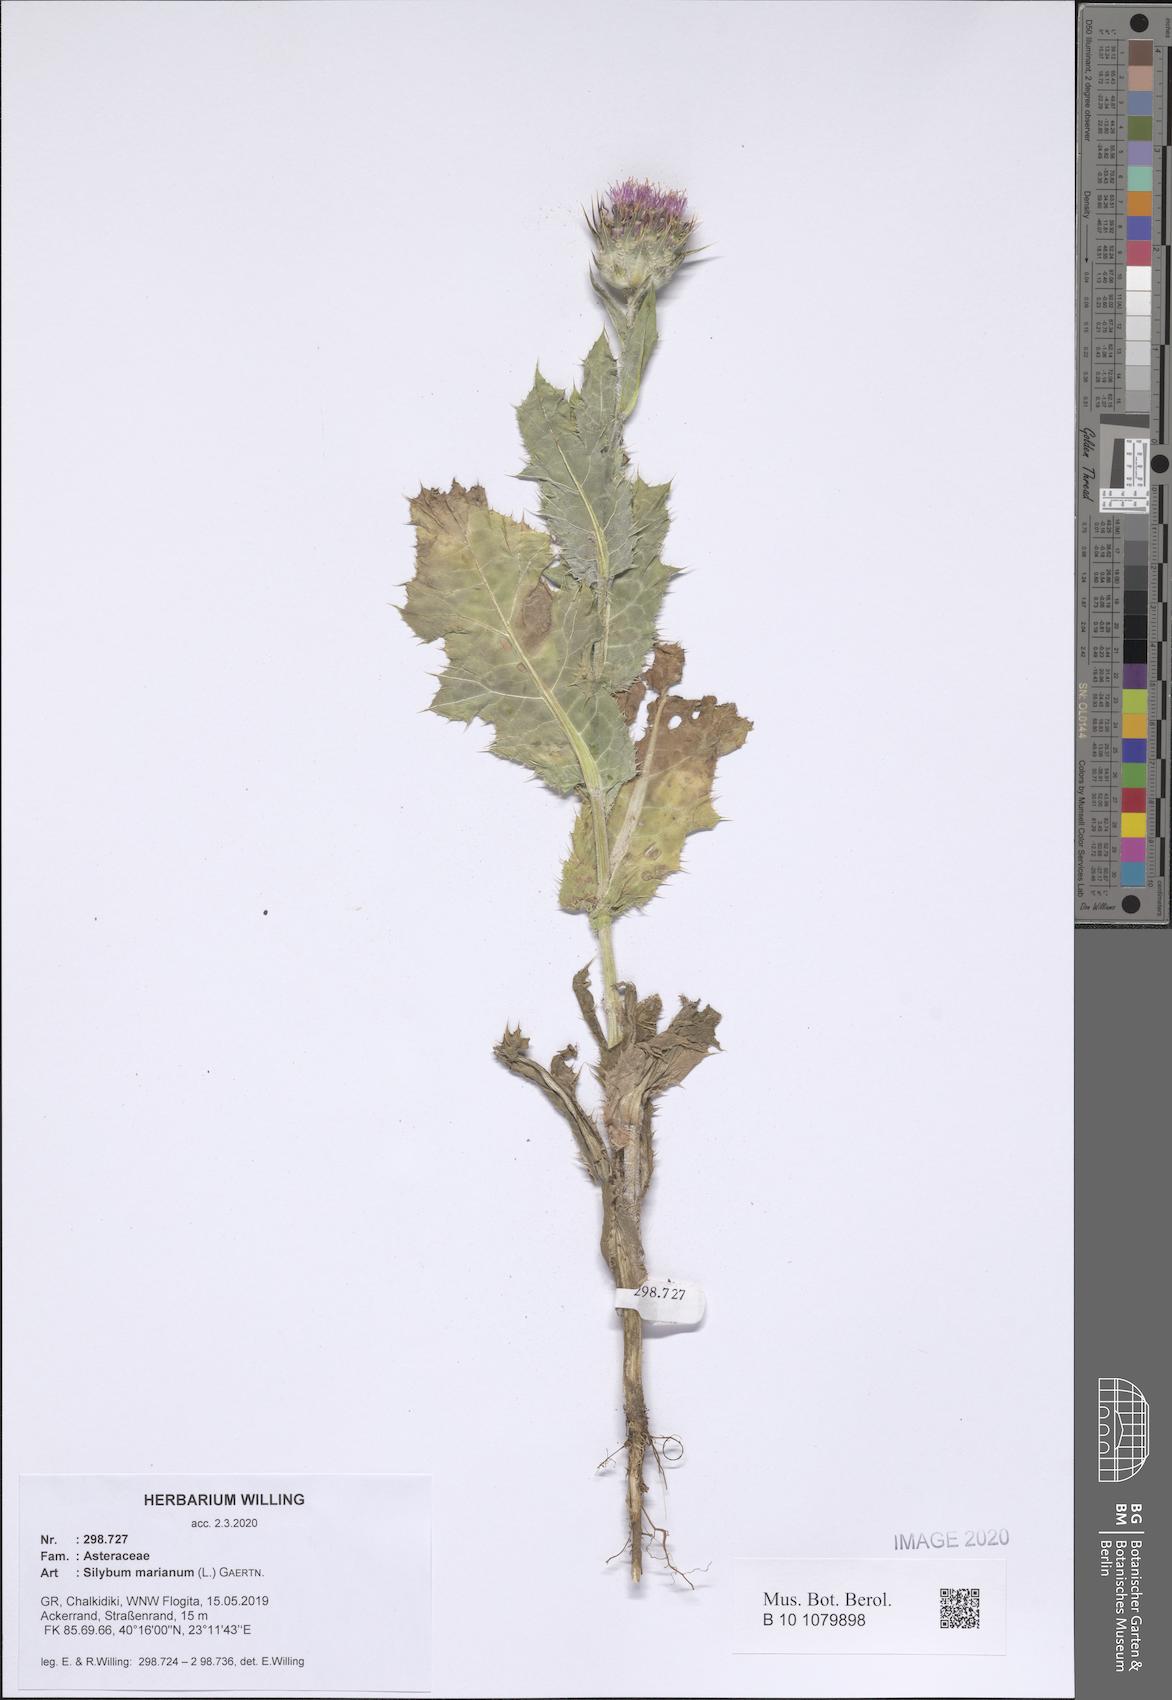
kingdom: Plantae
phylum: Tracheophyta
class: Magnoliopsida
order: Asterales
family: Asteraceae
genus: Silybum
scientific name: Silybum marianum
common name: Milk thistle
